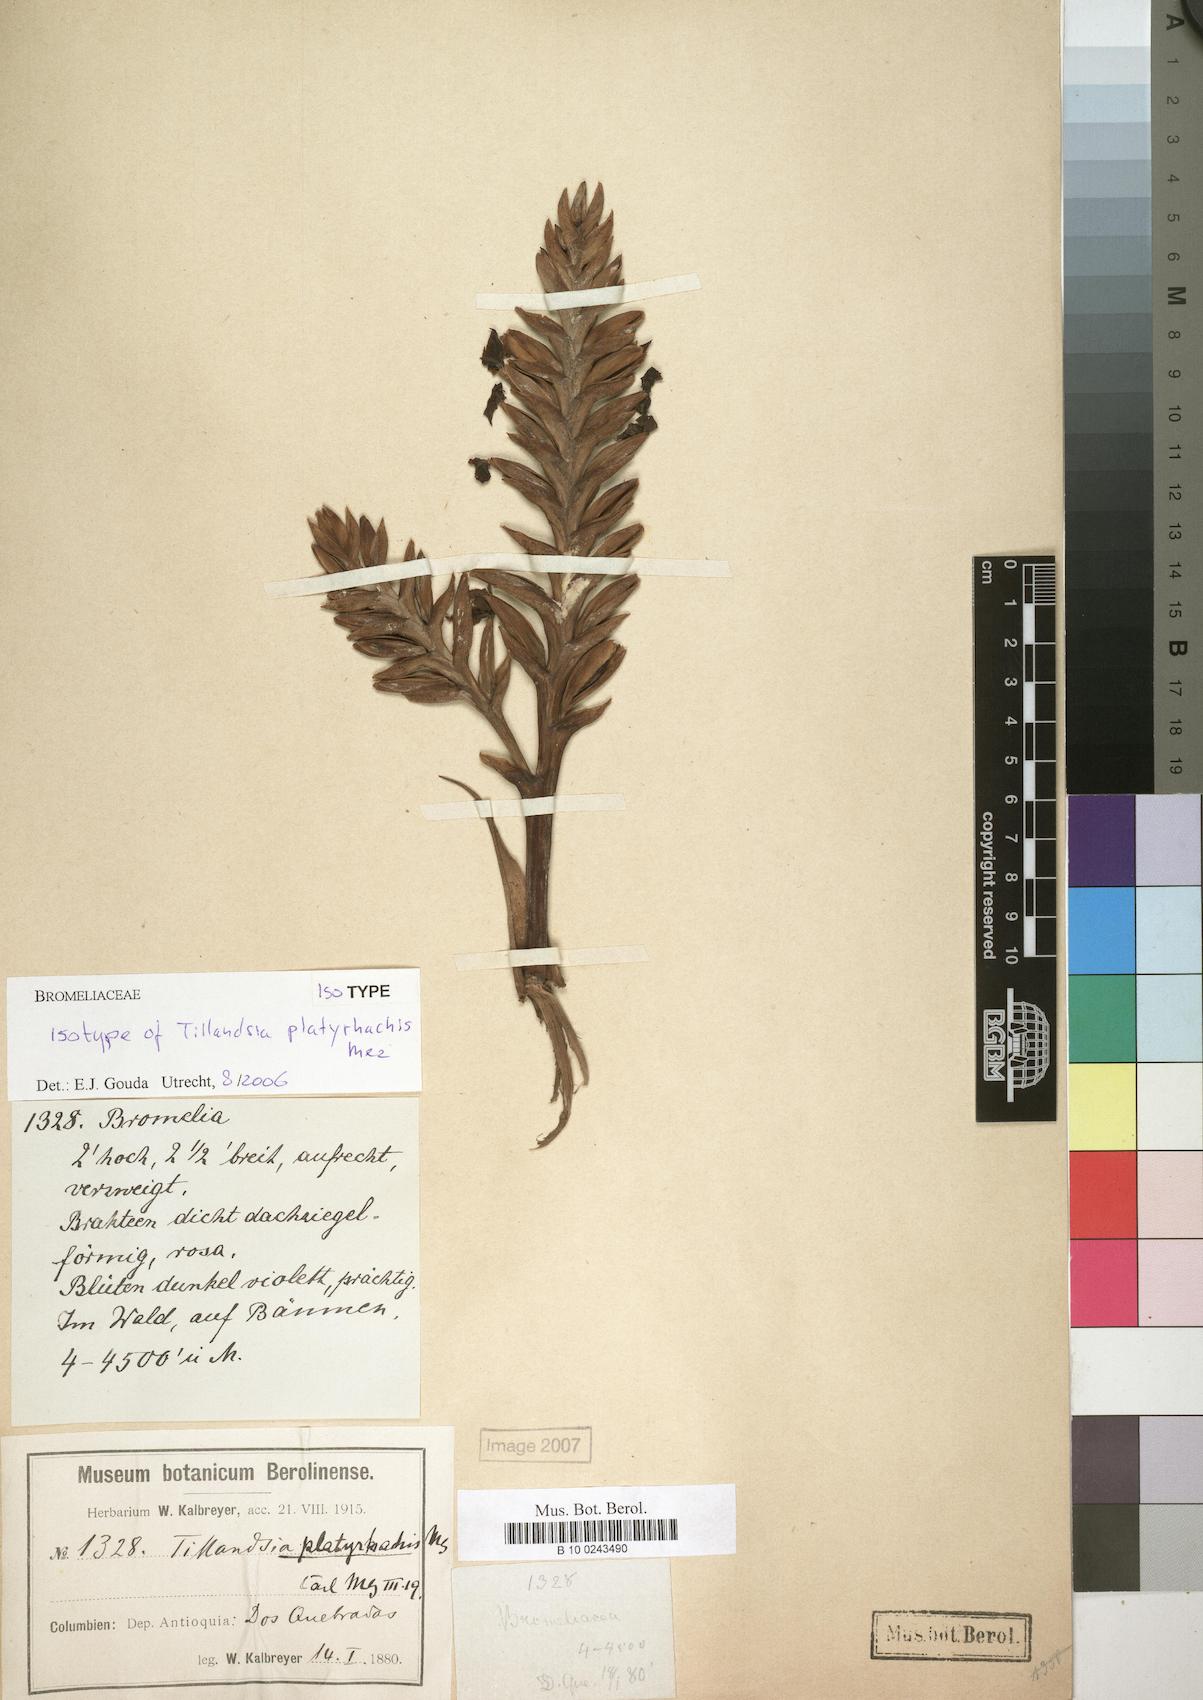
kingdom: Plantae
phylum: Tracheophyta
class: Liliopsida
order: Poales
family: Bromeliaceae
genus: Barfussia
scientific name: Barfussia platyrhachis
